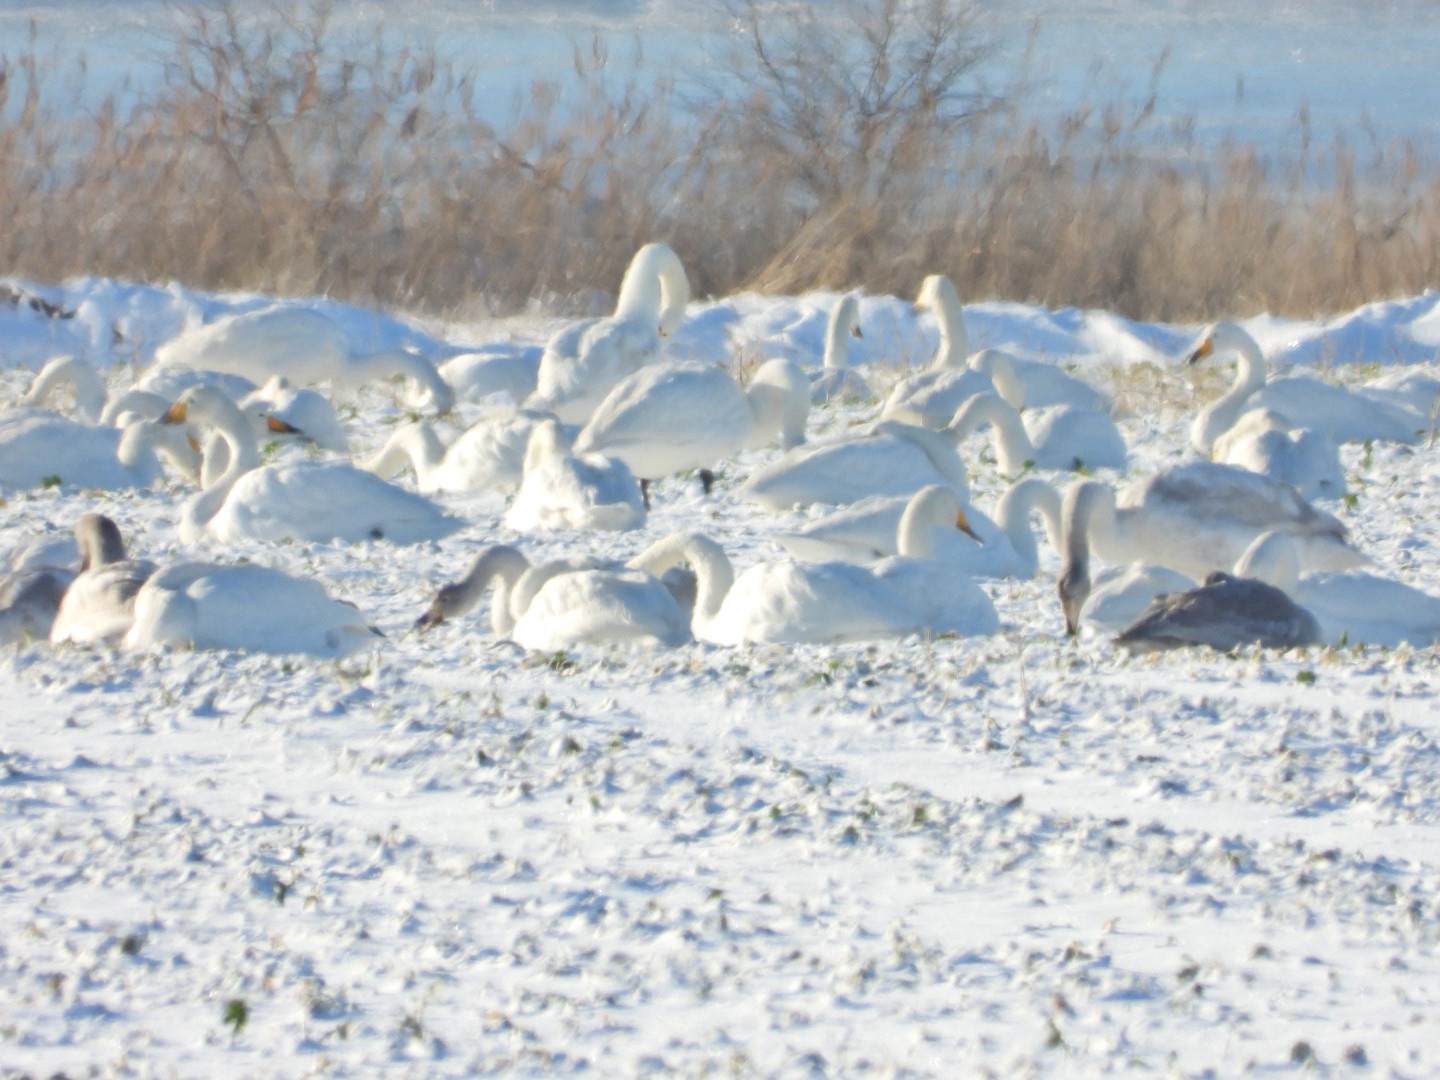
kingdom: Animalia
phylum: Chordata
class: Aves
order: Anseriformes
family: Anatidae
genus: Cygnus
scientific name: Cygnus cygnus
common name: Sangsvane
